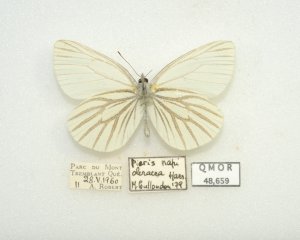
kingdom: Animalia
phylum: Arthropoda
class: Insecta
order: Lepidoptera
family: Pieridae
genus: Pieris
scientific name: Pieris oleracea
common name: Mustard White
